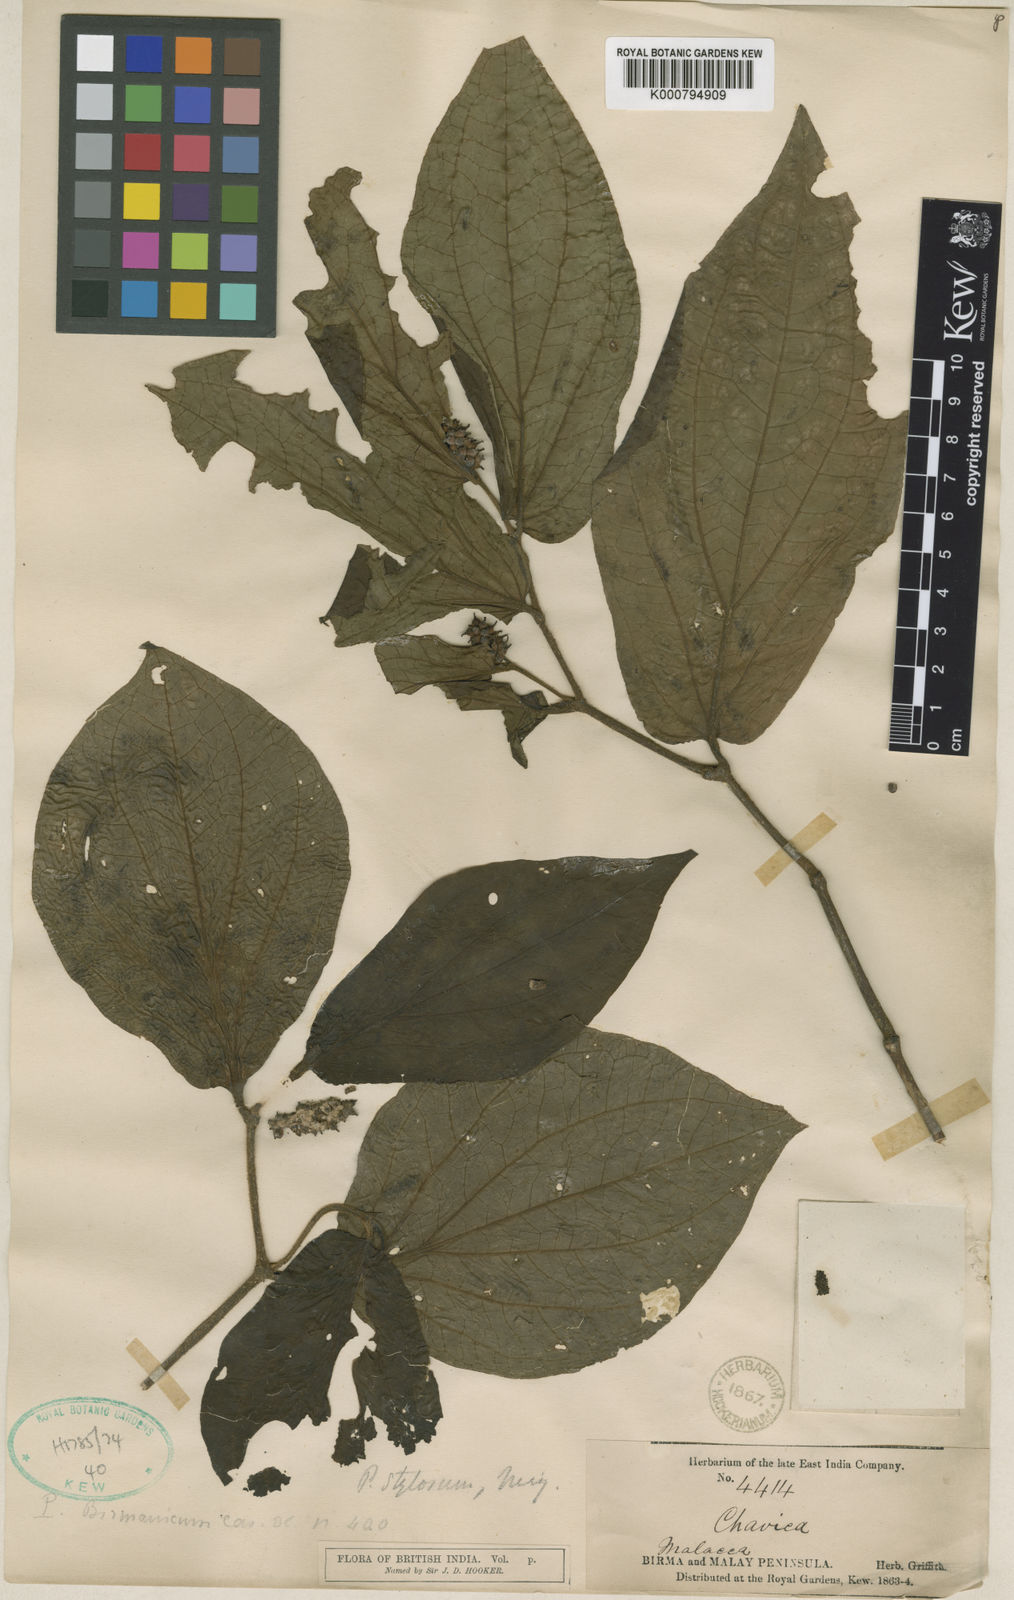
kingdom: Plantae
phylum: Tracheophyta
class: Magnoliopsida
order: Piperales
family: Piperaceae
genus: Piper
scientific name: Piper rostratum
